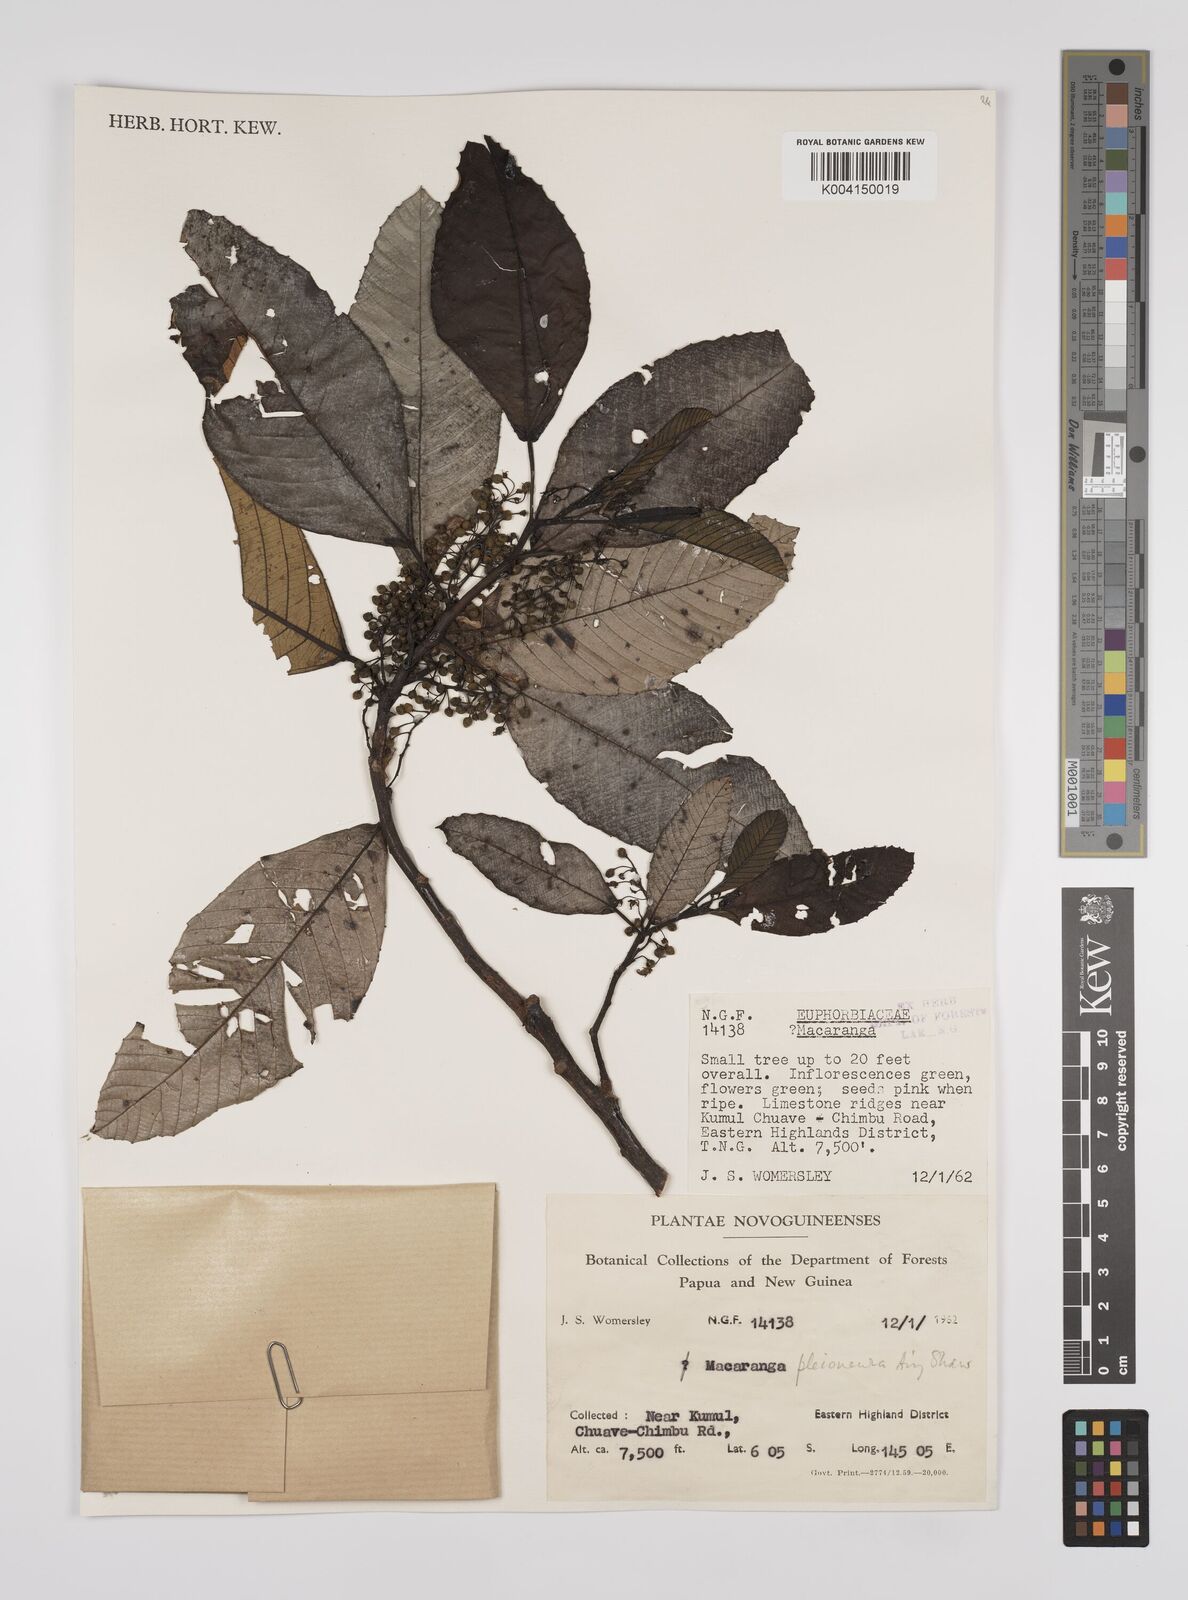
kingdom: Plantae
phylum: Tracheophyta
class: Magnoliopsida
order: Malpighiales
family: Euphorbiaceae
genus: Macaranga
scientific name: Macaranga pleioneura
